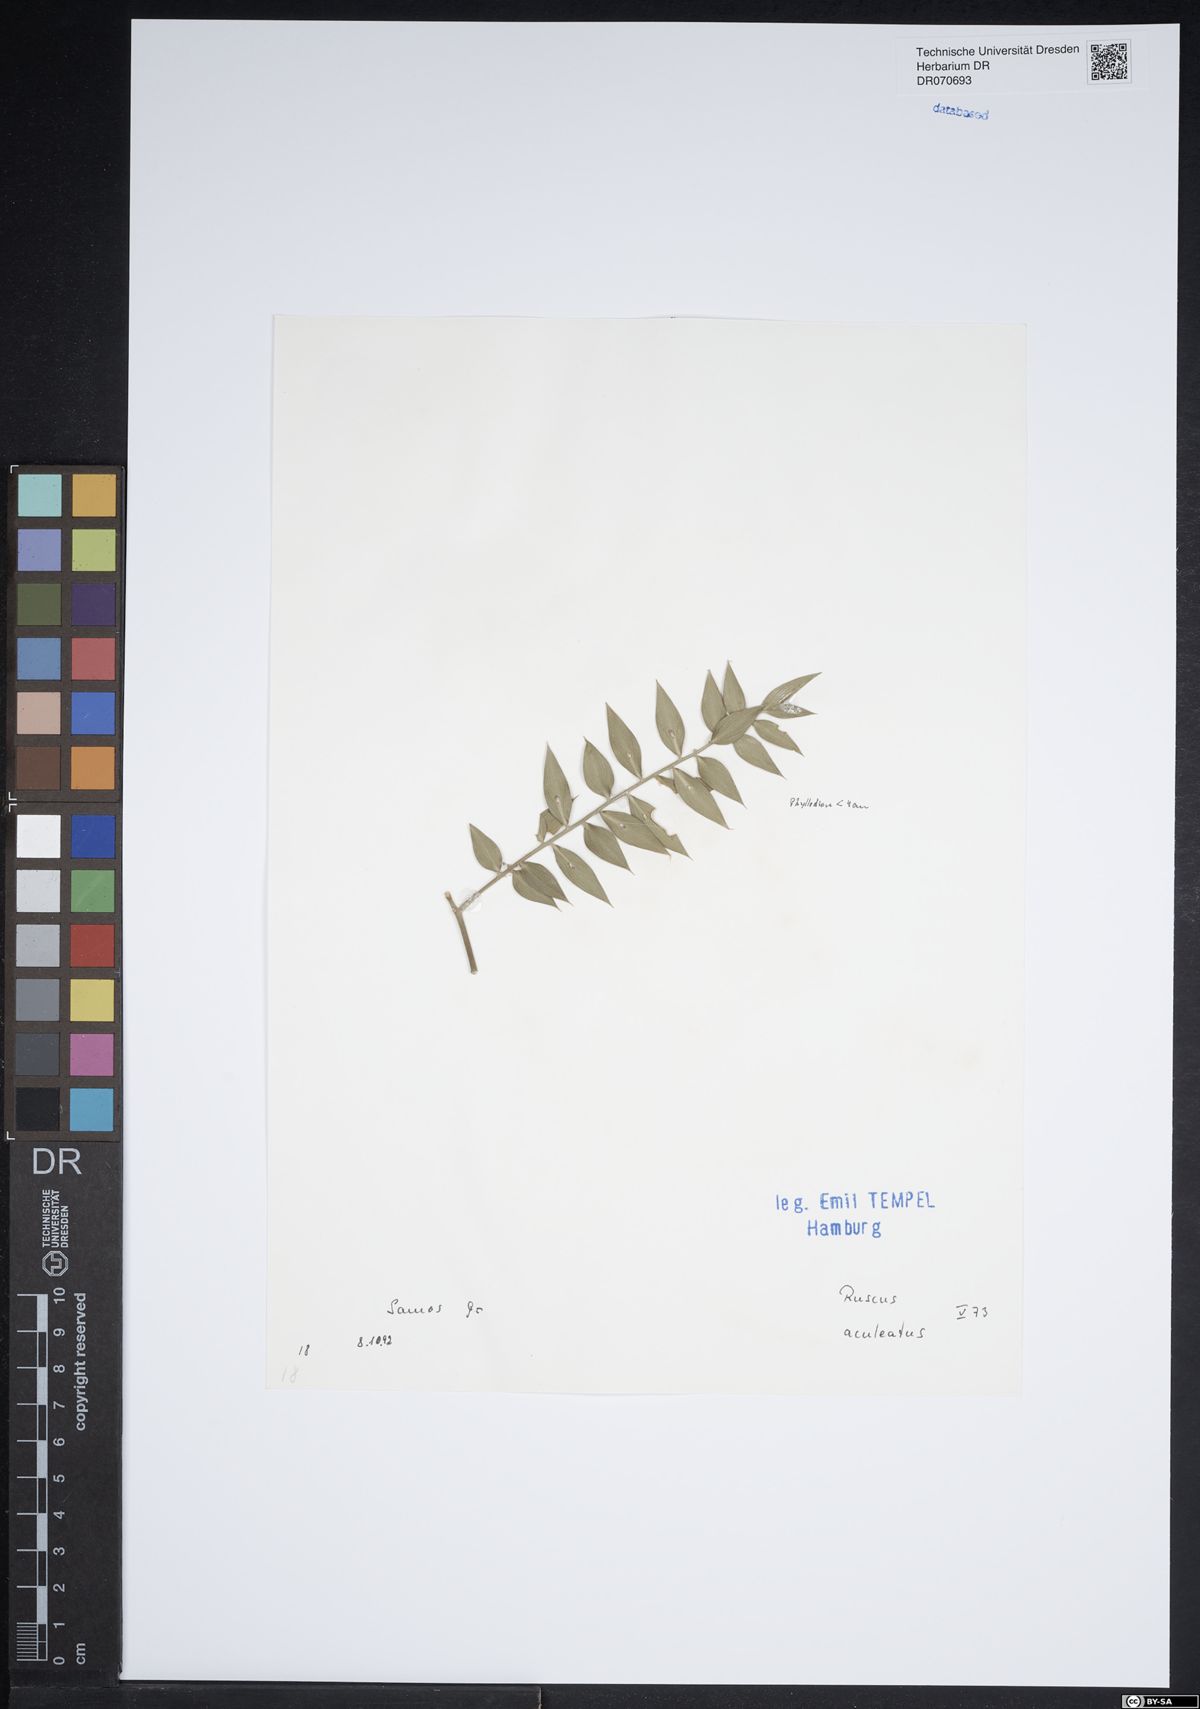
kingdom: Plantae
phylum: Tracheophyta
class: Liliopsida
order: Asparagales
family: Asparagaceae
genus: Ruscus
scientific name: Ruscus aculeatus
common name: Butcher's-broom
